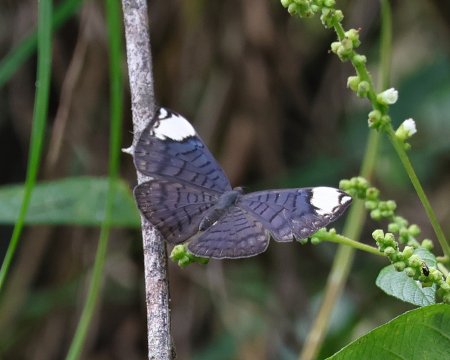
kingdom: Animalia
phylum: Arthropoda
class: Insecta
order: Lepidoptera
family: Riodinidae
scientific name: Riodinidae
